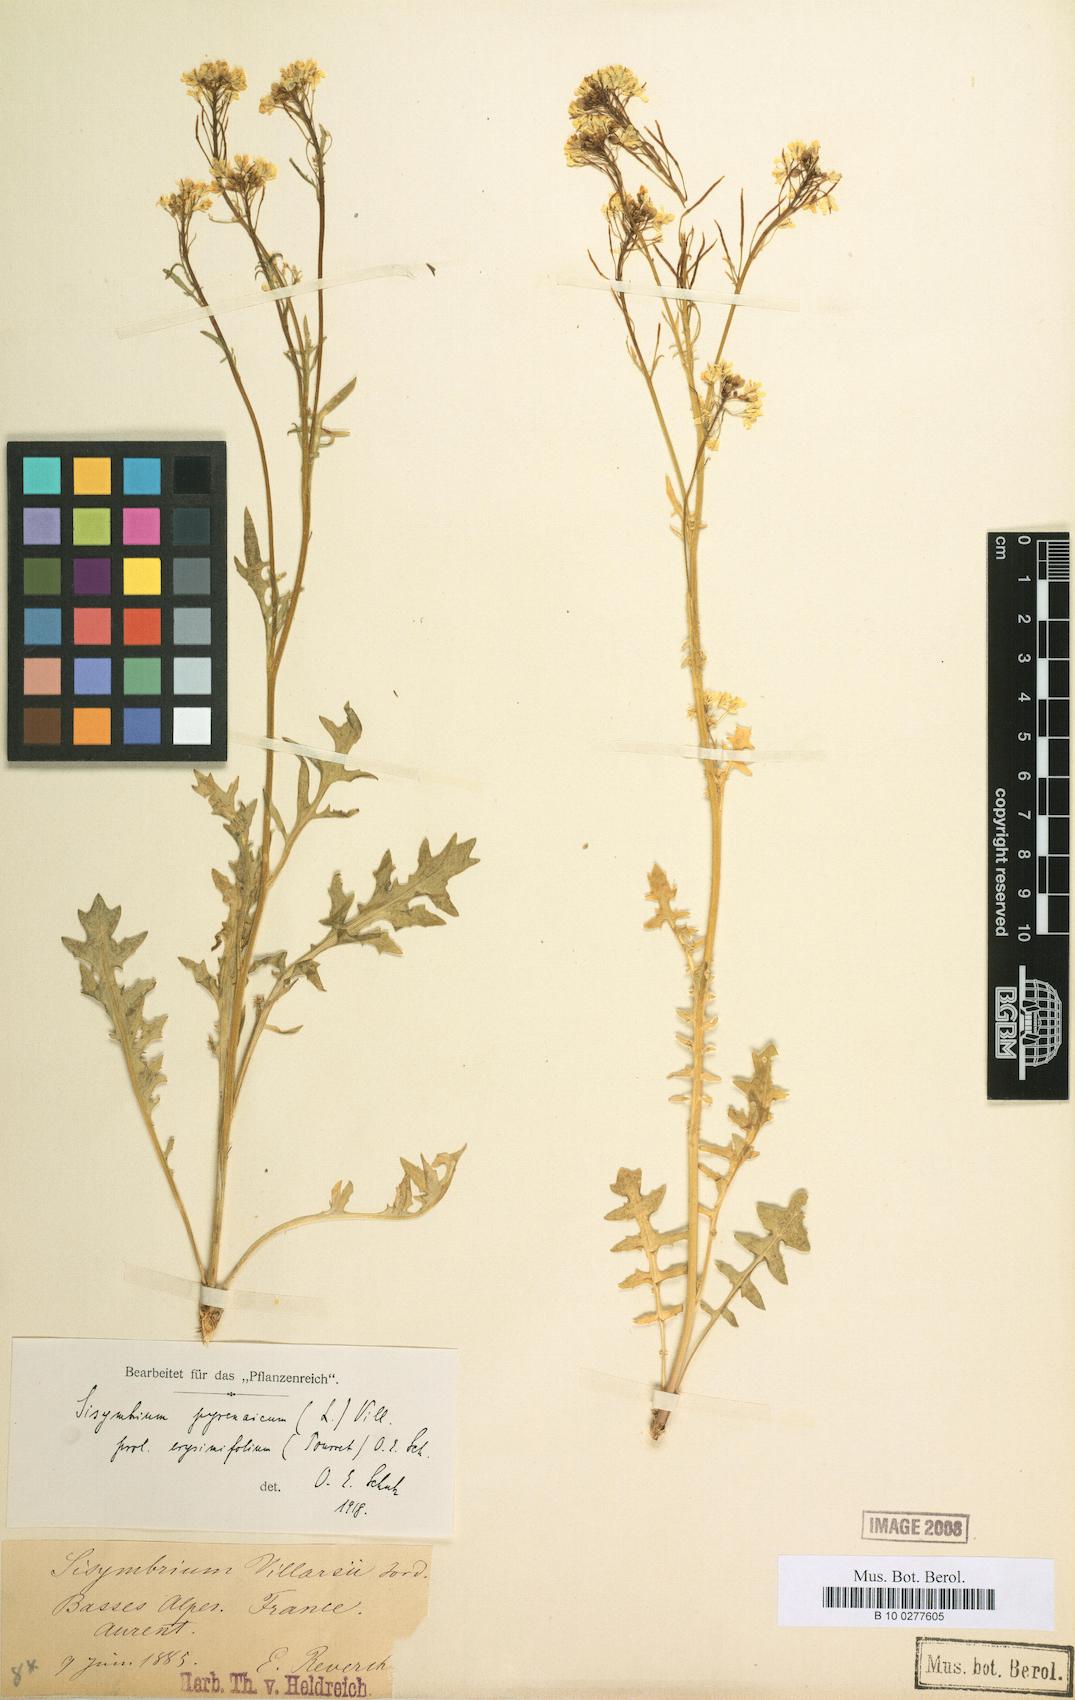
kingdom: Plantae
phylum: Tracheophyta
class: Magnoliopsida
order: Brassicales
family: Brassicaceae
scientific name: Brassicaceae
